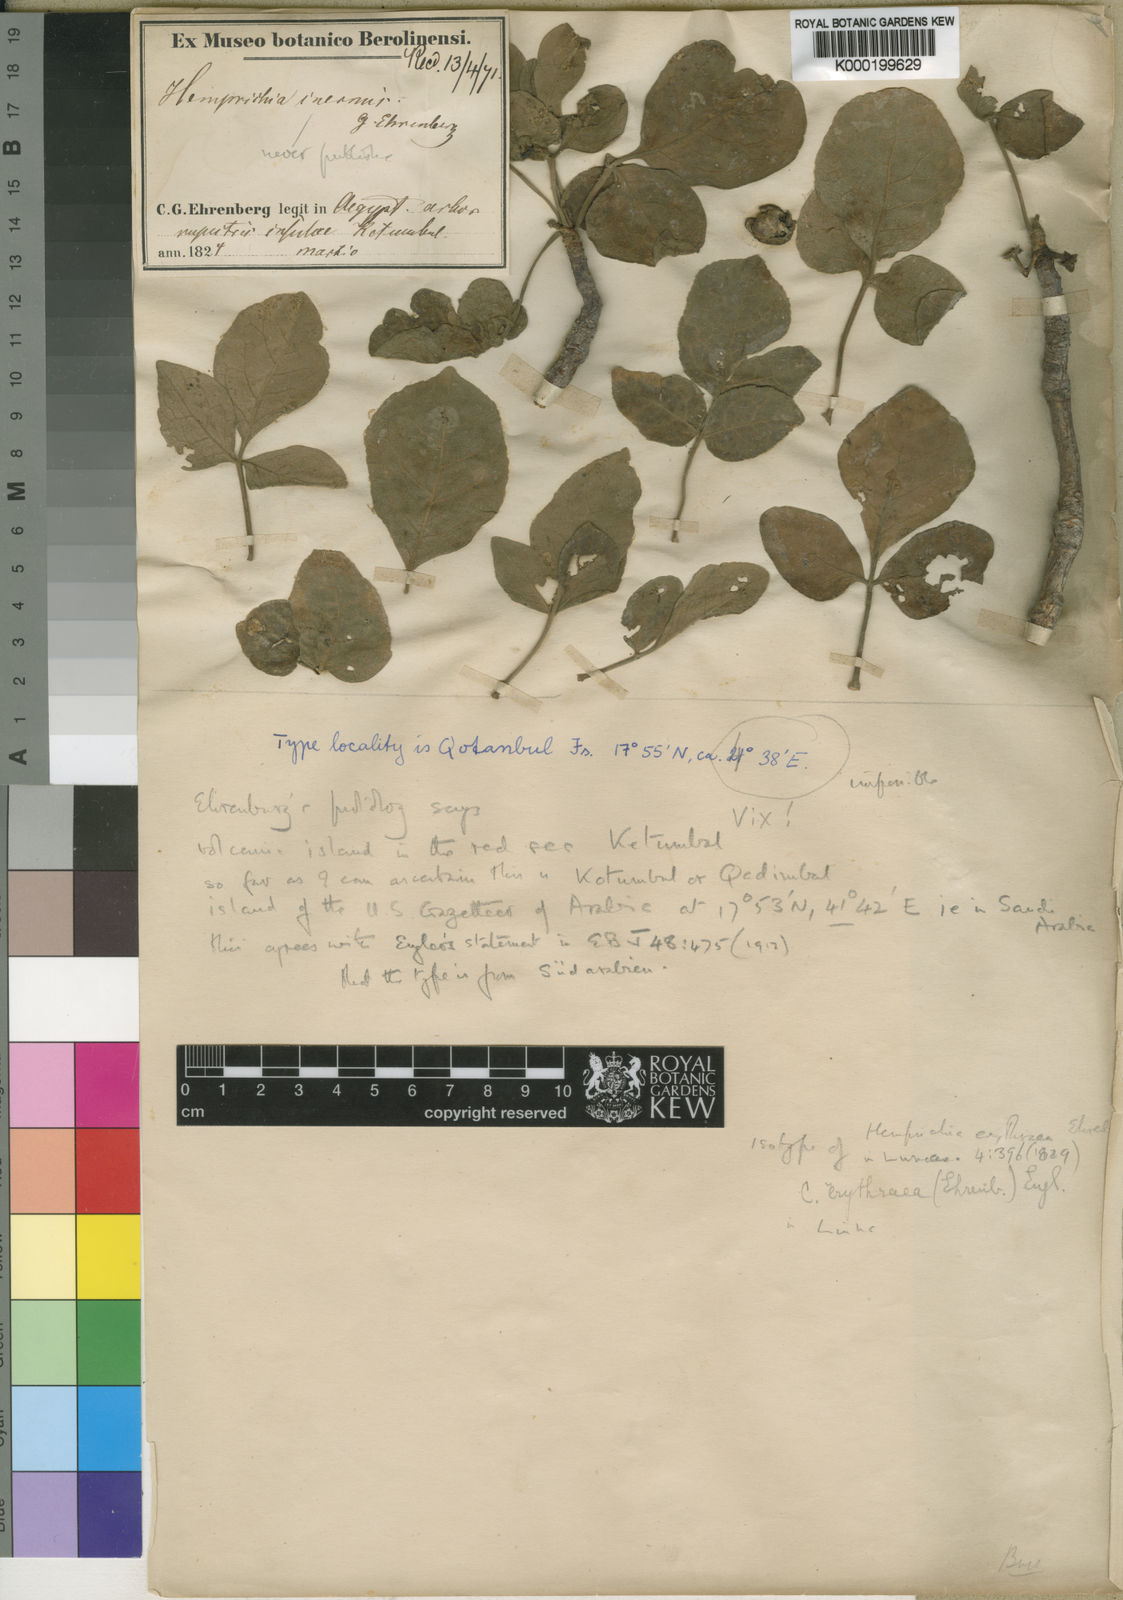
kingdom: Plantae
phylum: Tracheophyta
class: Magnoliopsida
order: Sapindales
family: Burseraceae
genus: Commiphora
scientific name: Commiphora kataf
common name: Bisabol myrrh
